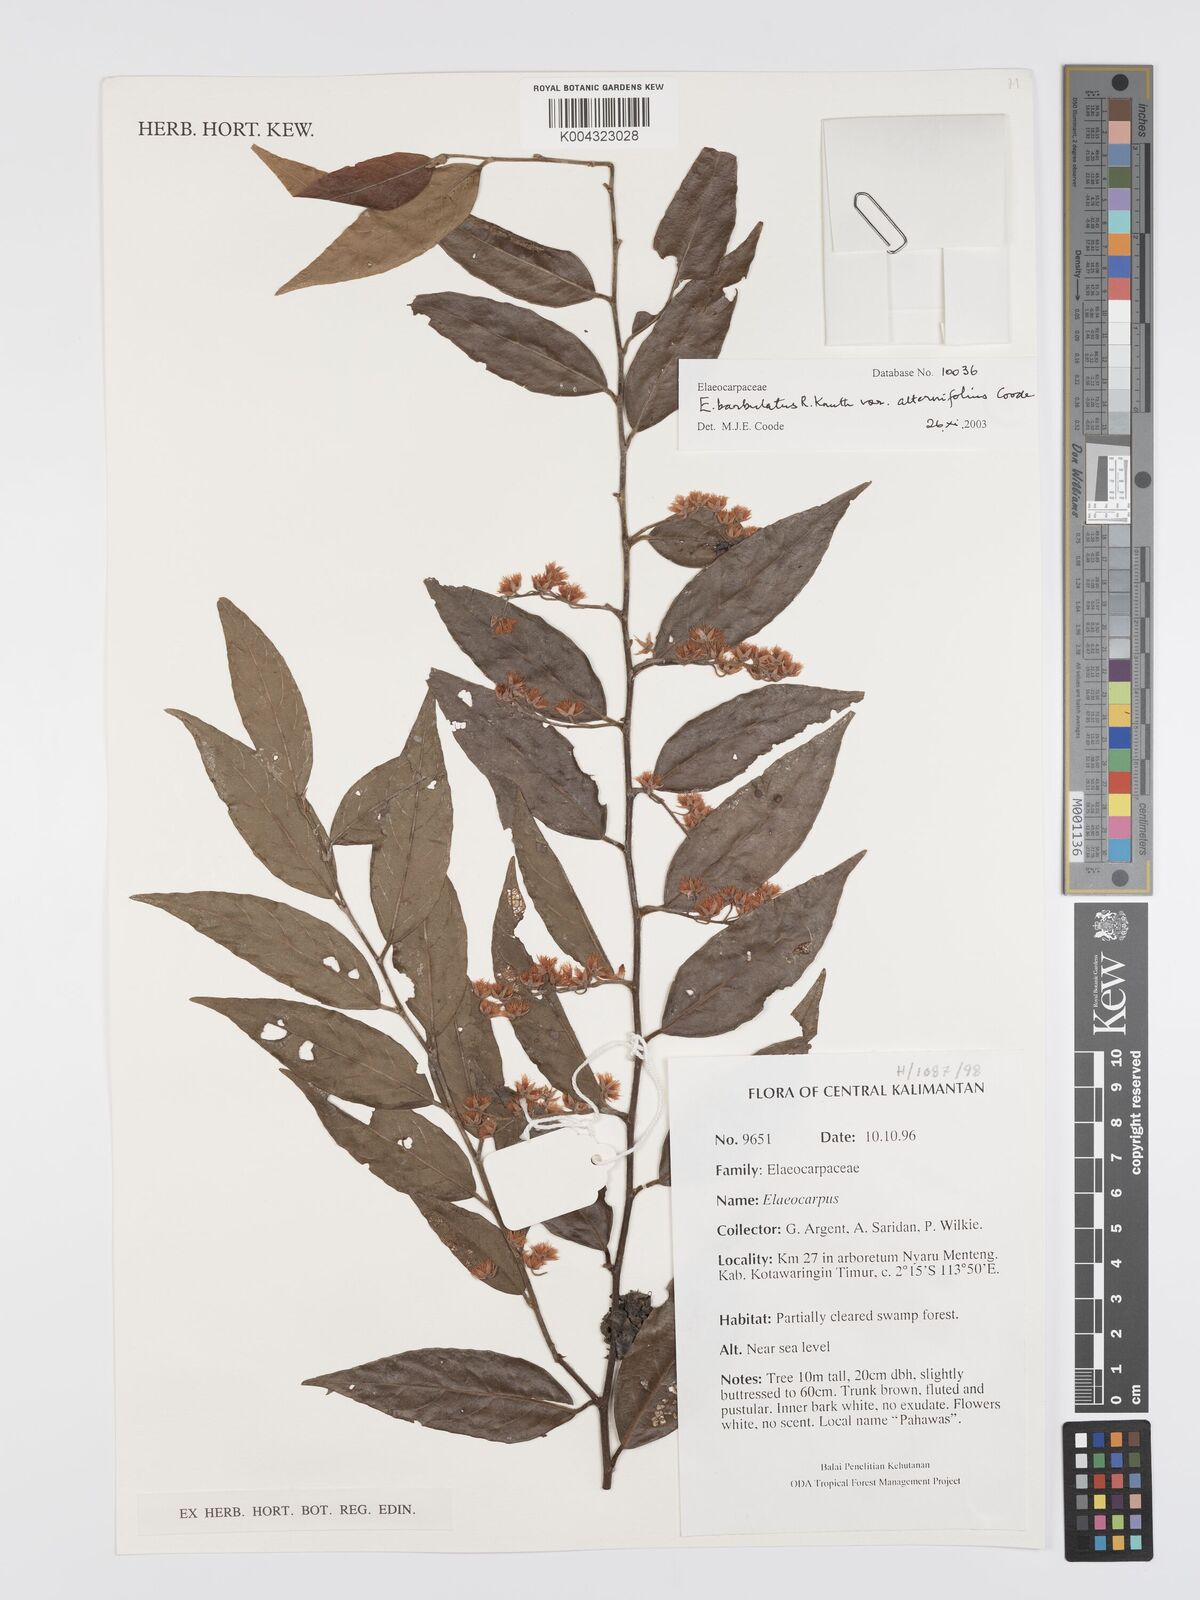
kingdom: Plantae
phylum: Tracheophyta
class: Magnoliopsida
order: Oxalidales
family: Elaeocarpaceae
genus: Elaeocarpus
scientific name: Elaeocarpus barbulatus
